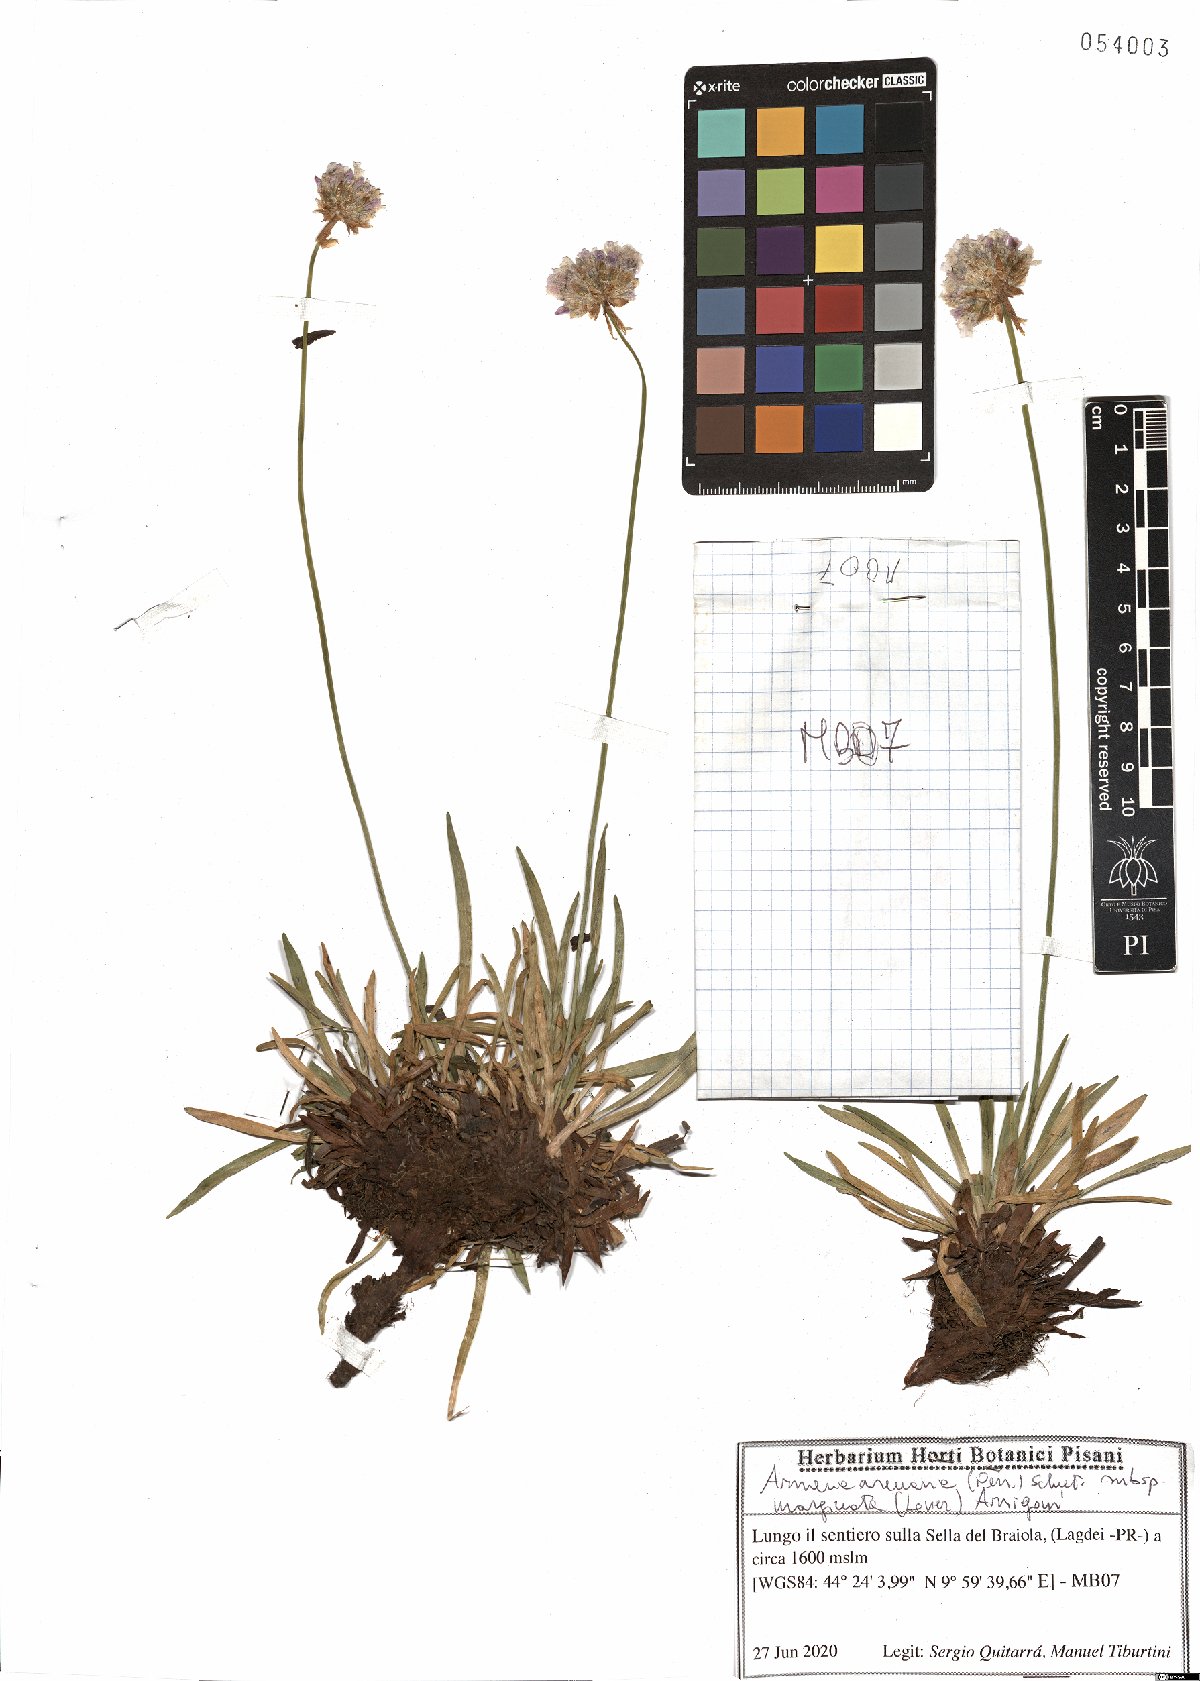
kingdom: Plantae
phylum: Tracheophyta
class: Magnoliopsida
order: Caryophyllales
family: Plumbaginaceae
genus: Armeria
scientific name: Armeria arenaria
